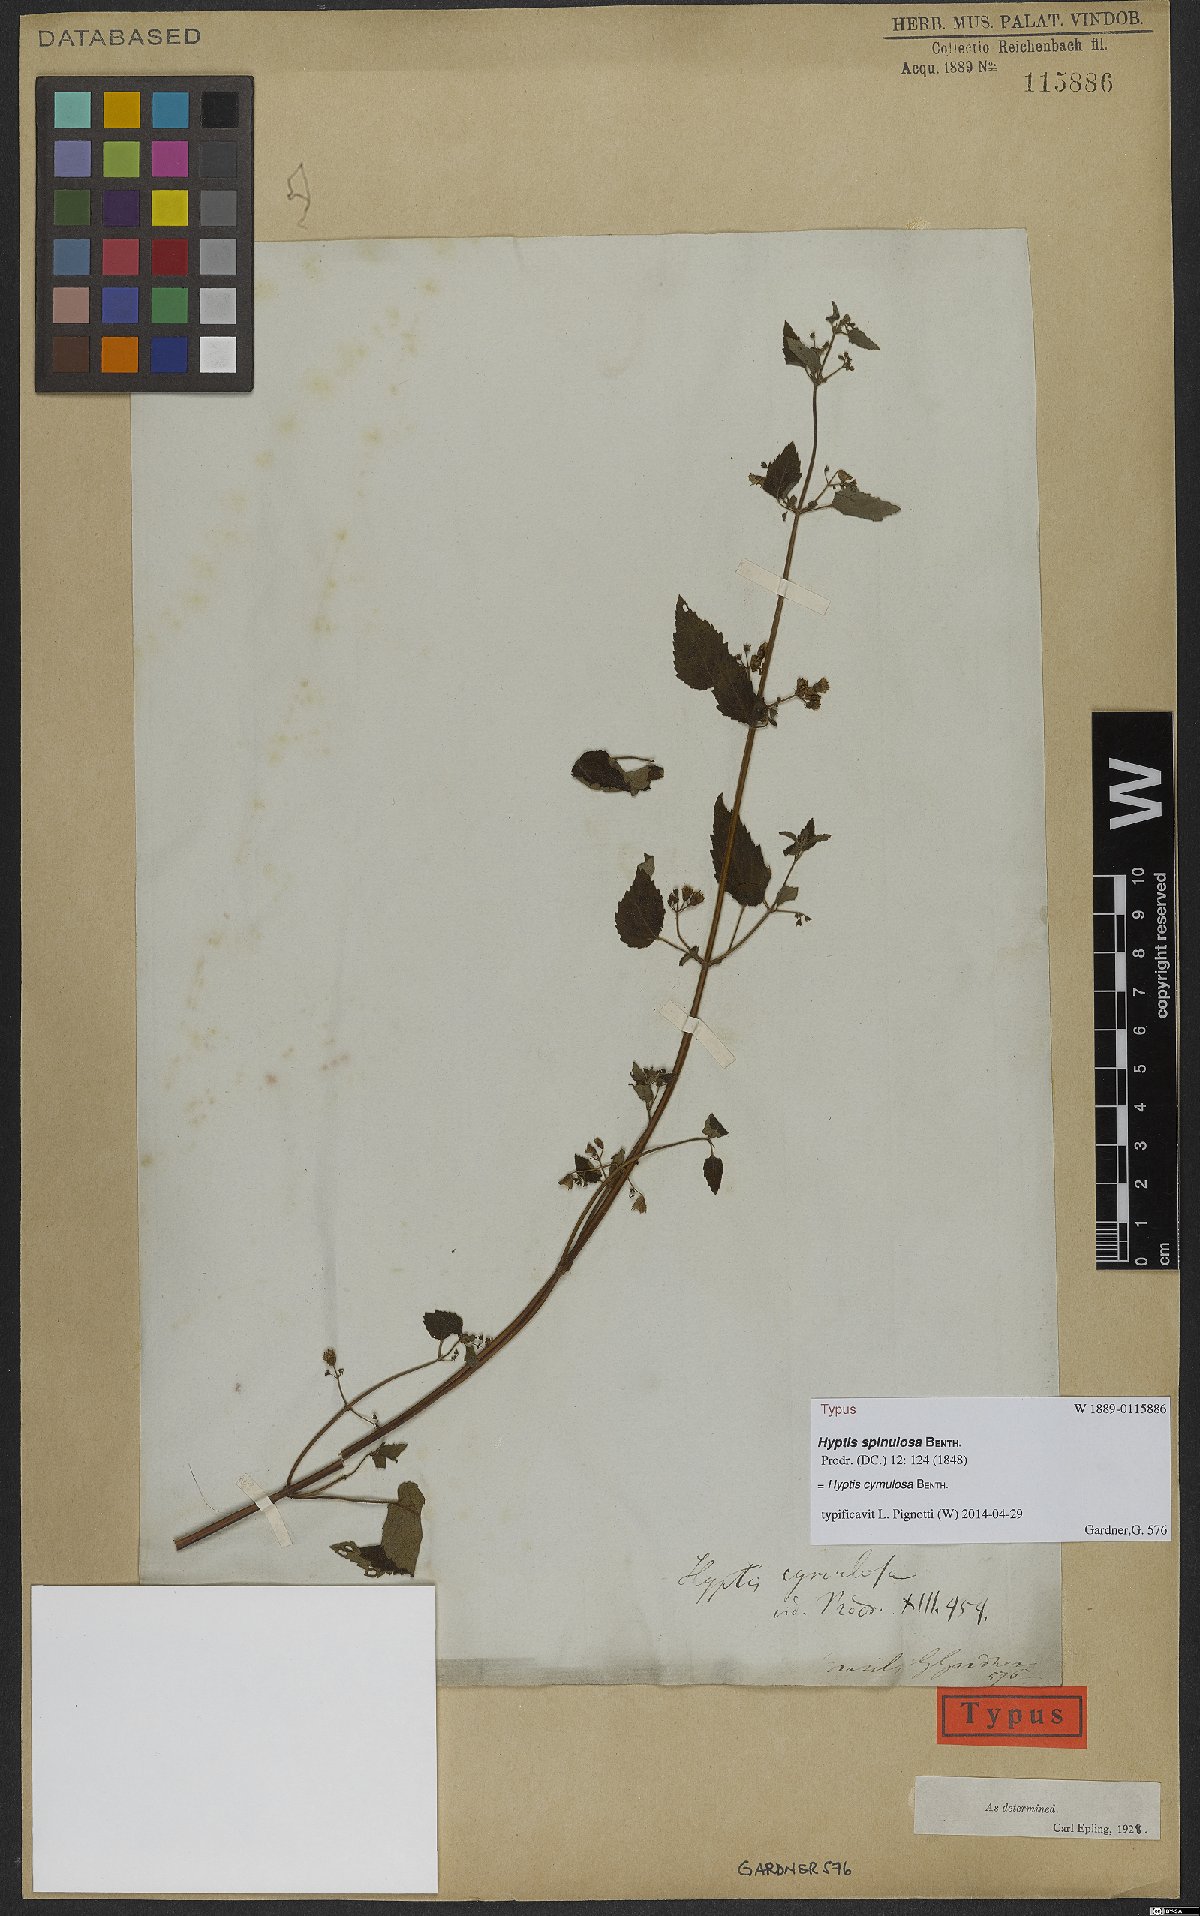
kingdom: Plantae
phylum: Tracheophyta
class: Magnoliopsida
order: Lamiales
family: Lamiaceae
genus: Hyptis
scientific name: Hyptis cymulosa
